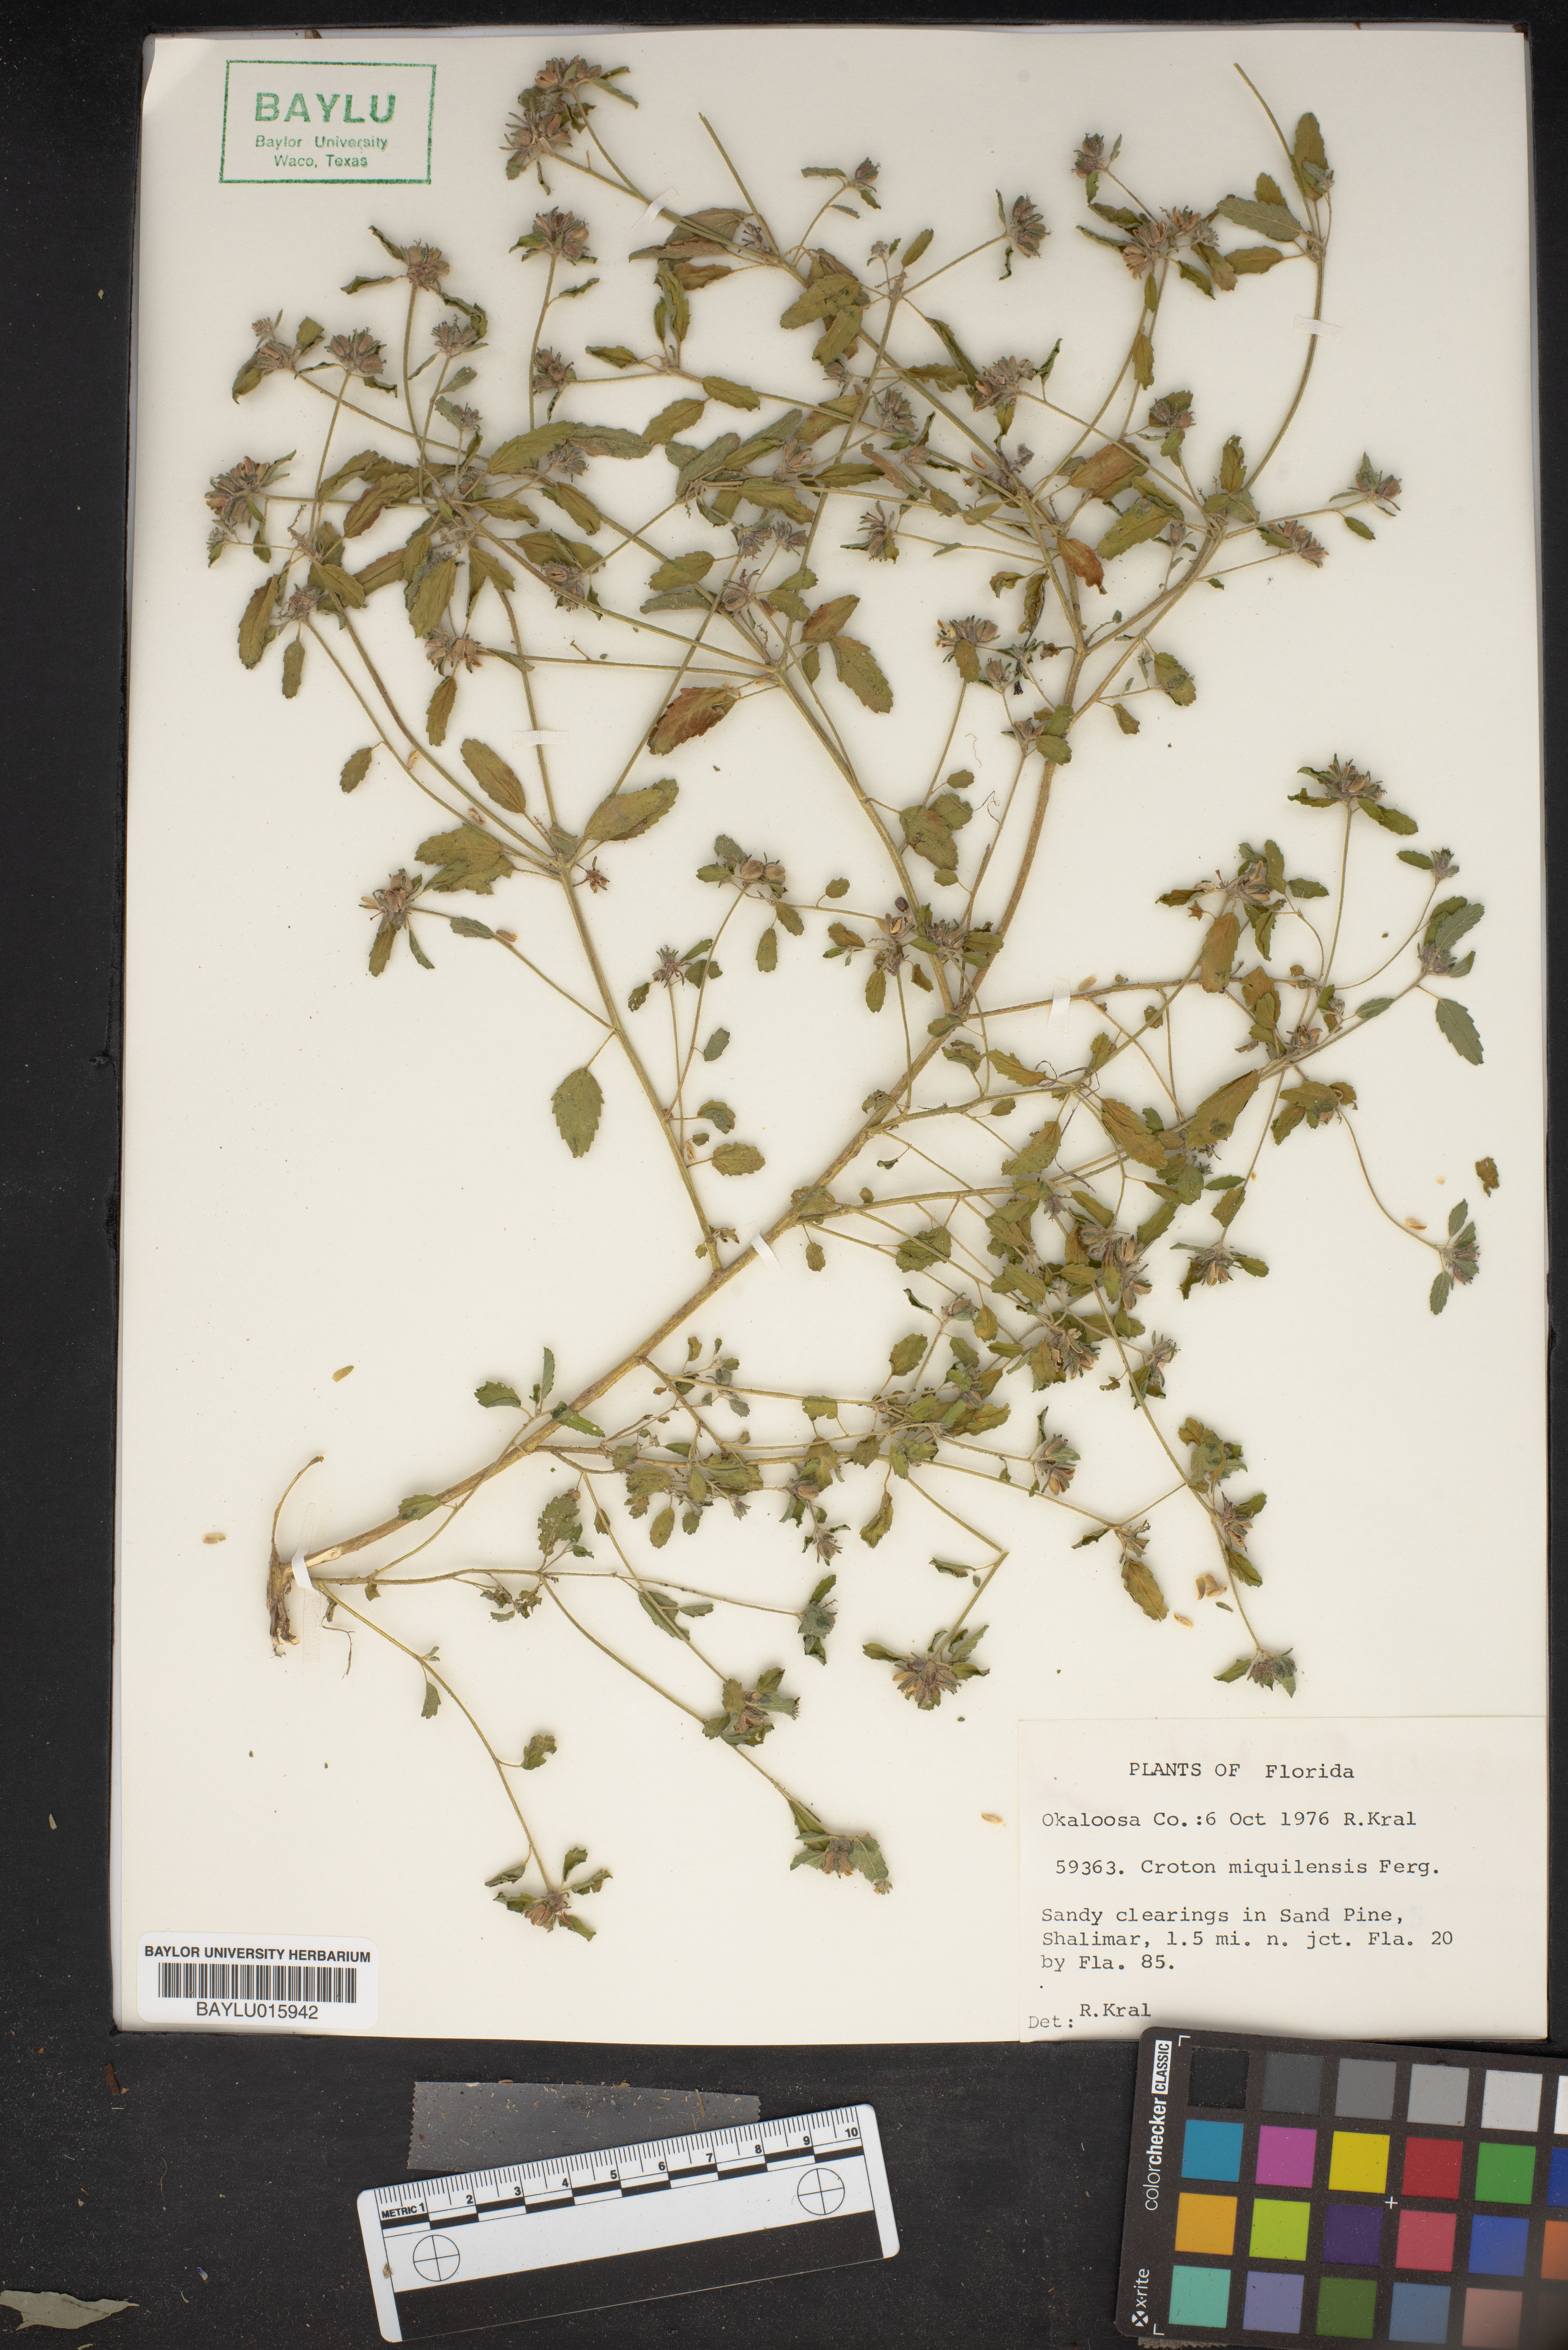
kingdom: Plantae
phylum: Tracheophyta
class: Magnoliopsida
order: Malpighiales
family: Euphorbiaceae
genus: Croton
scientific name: Croton trinitatis
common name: Roadside croton
